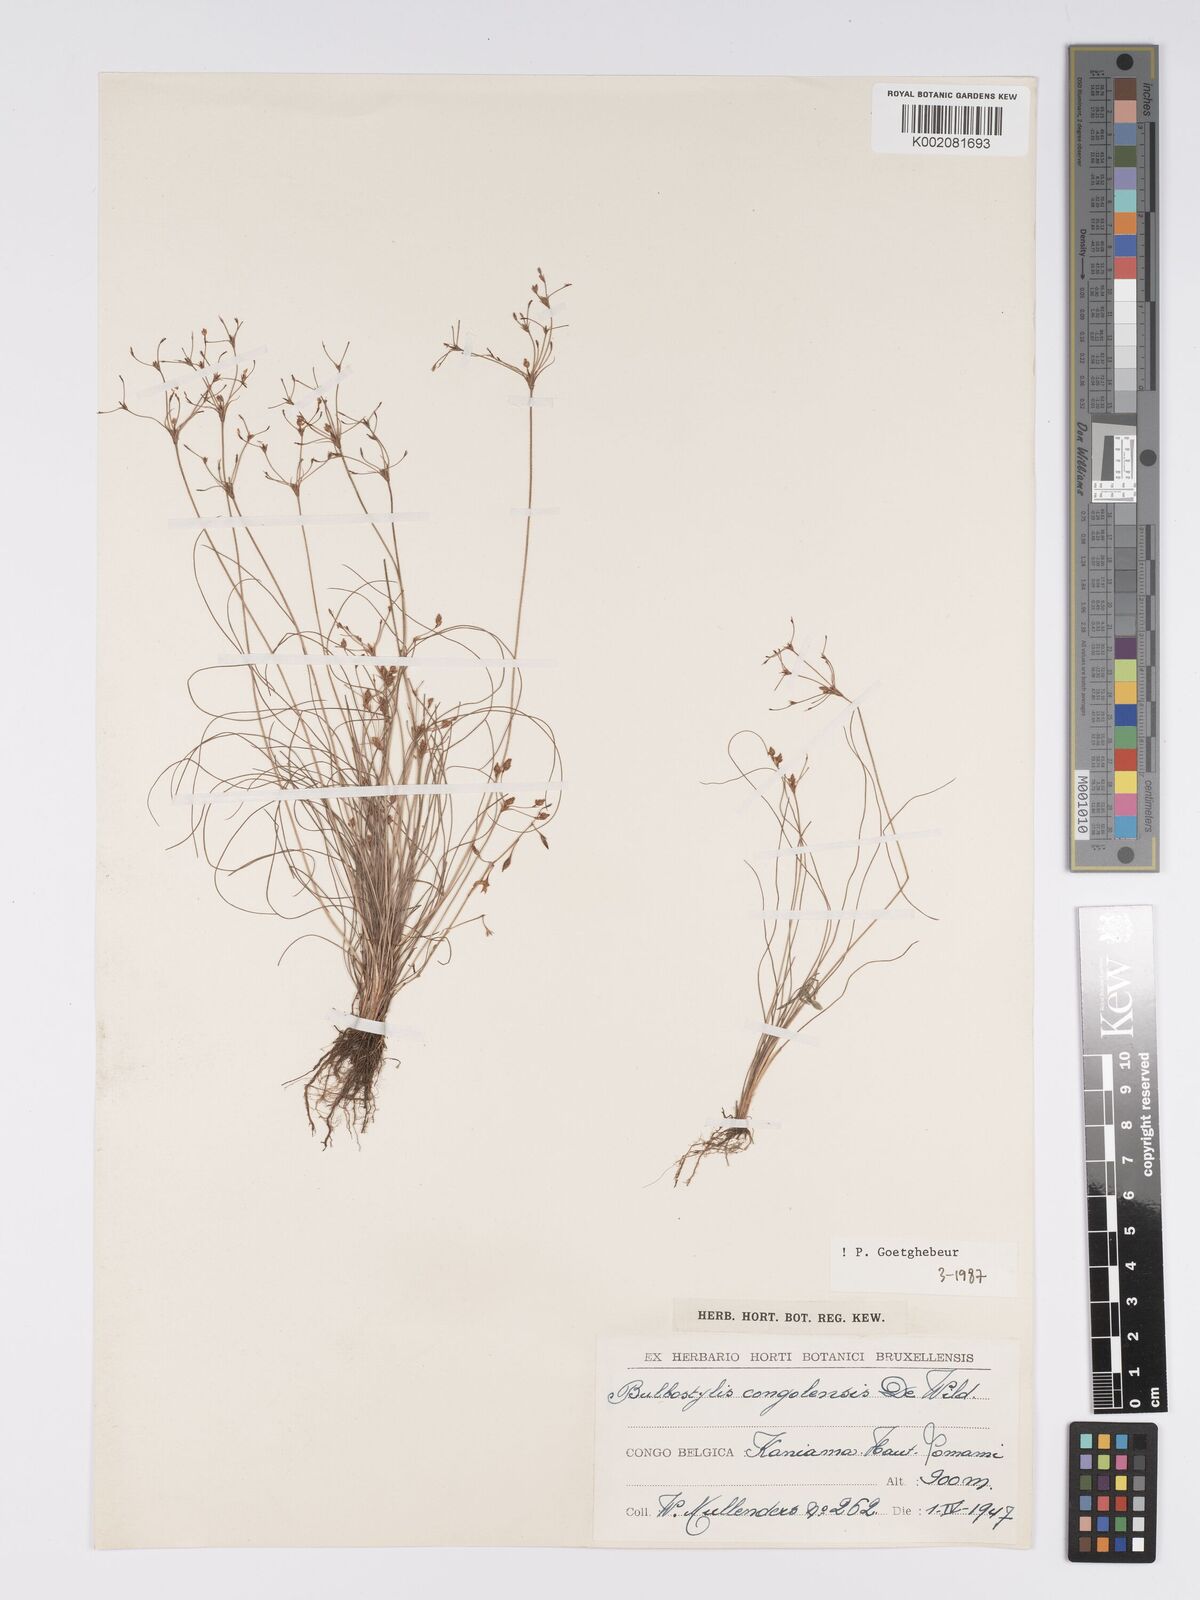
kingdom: Plantae
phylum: Tracheophyta
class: Liliopsida
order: Poales
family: Cyperaceae
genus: Bulbostylis
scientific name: Bulbostylis congolensis
